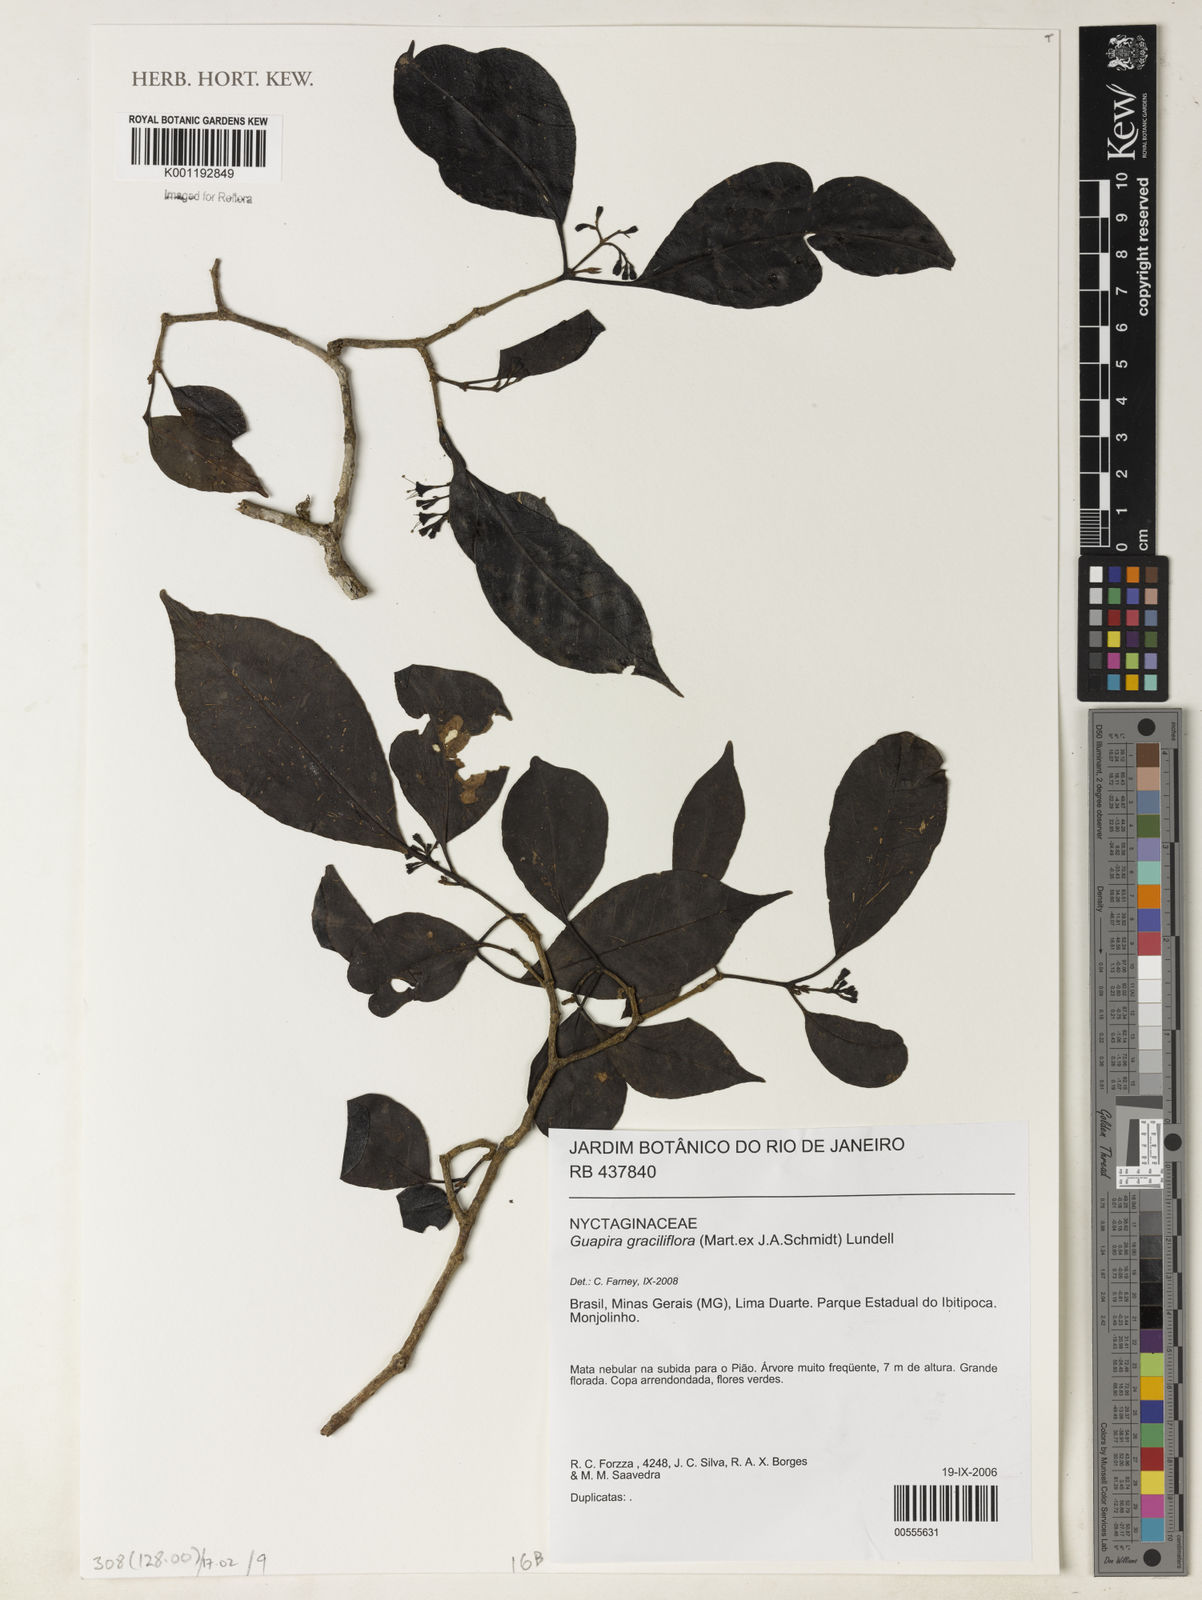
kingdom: Plantae
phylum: Tracheophyta
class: Magnoliopsida
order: Caryophyllales
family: Nyctaginaceae
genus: Guapira
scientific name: Guapira graciliflora
